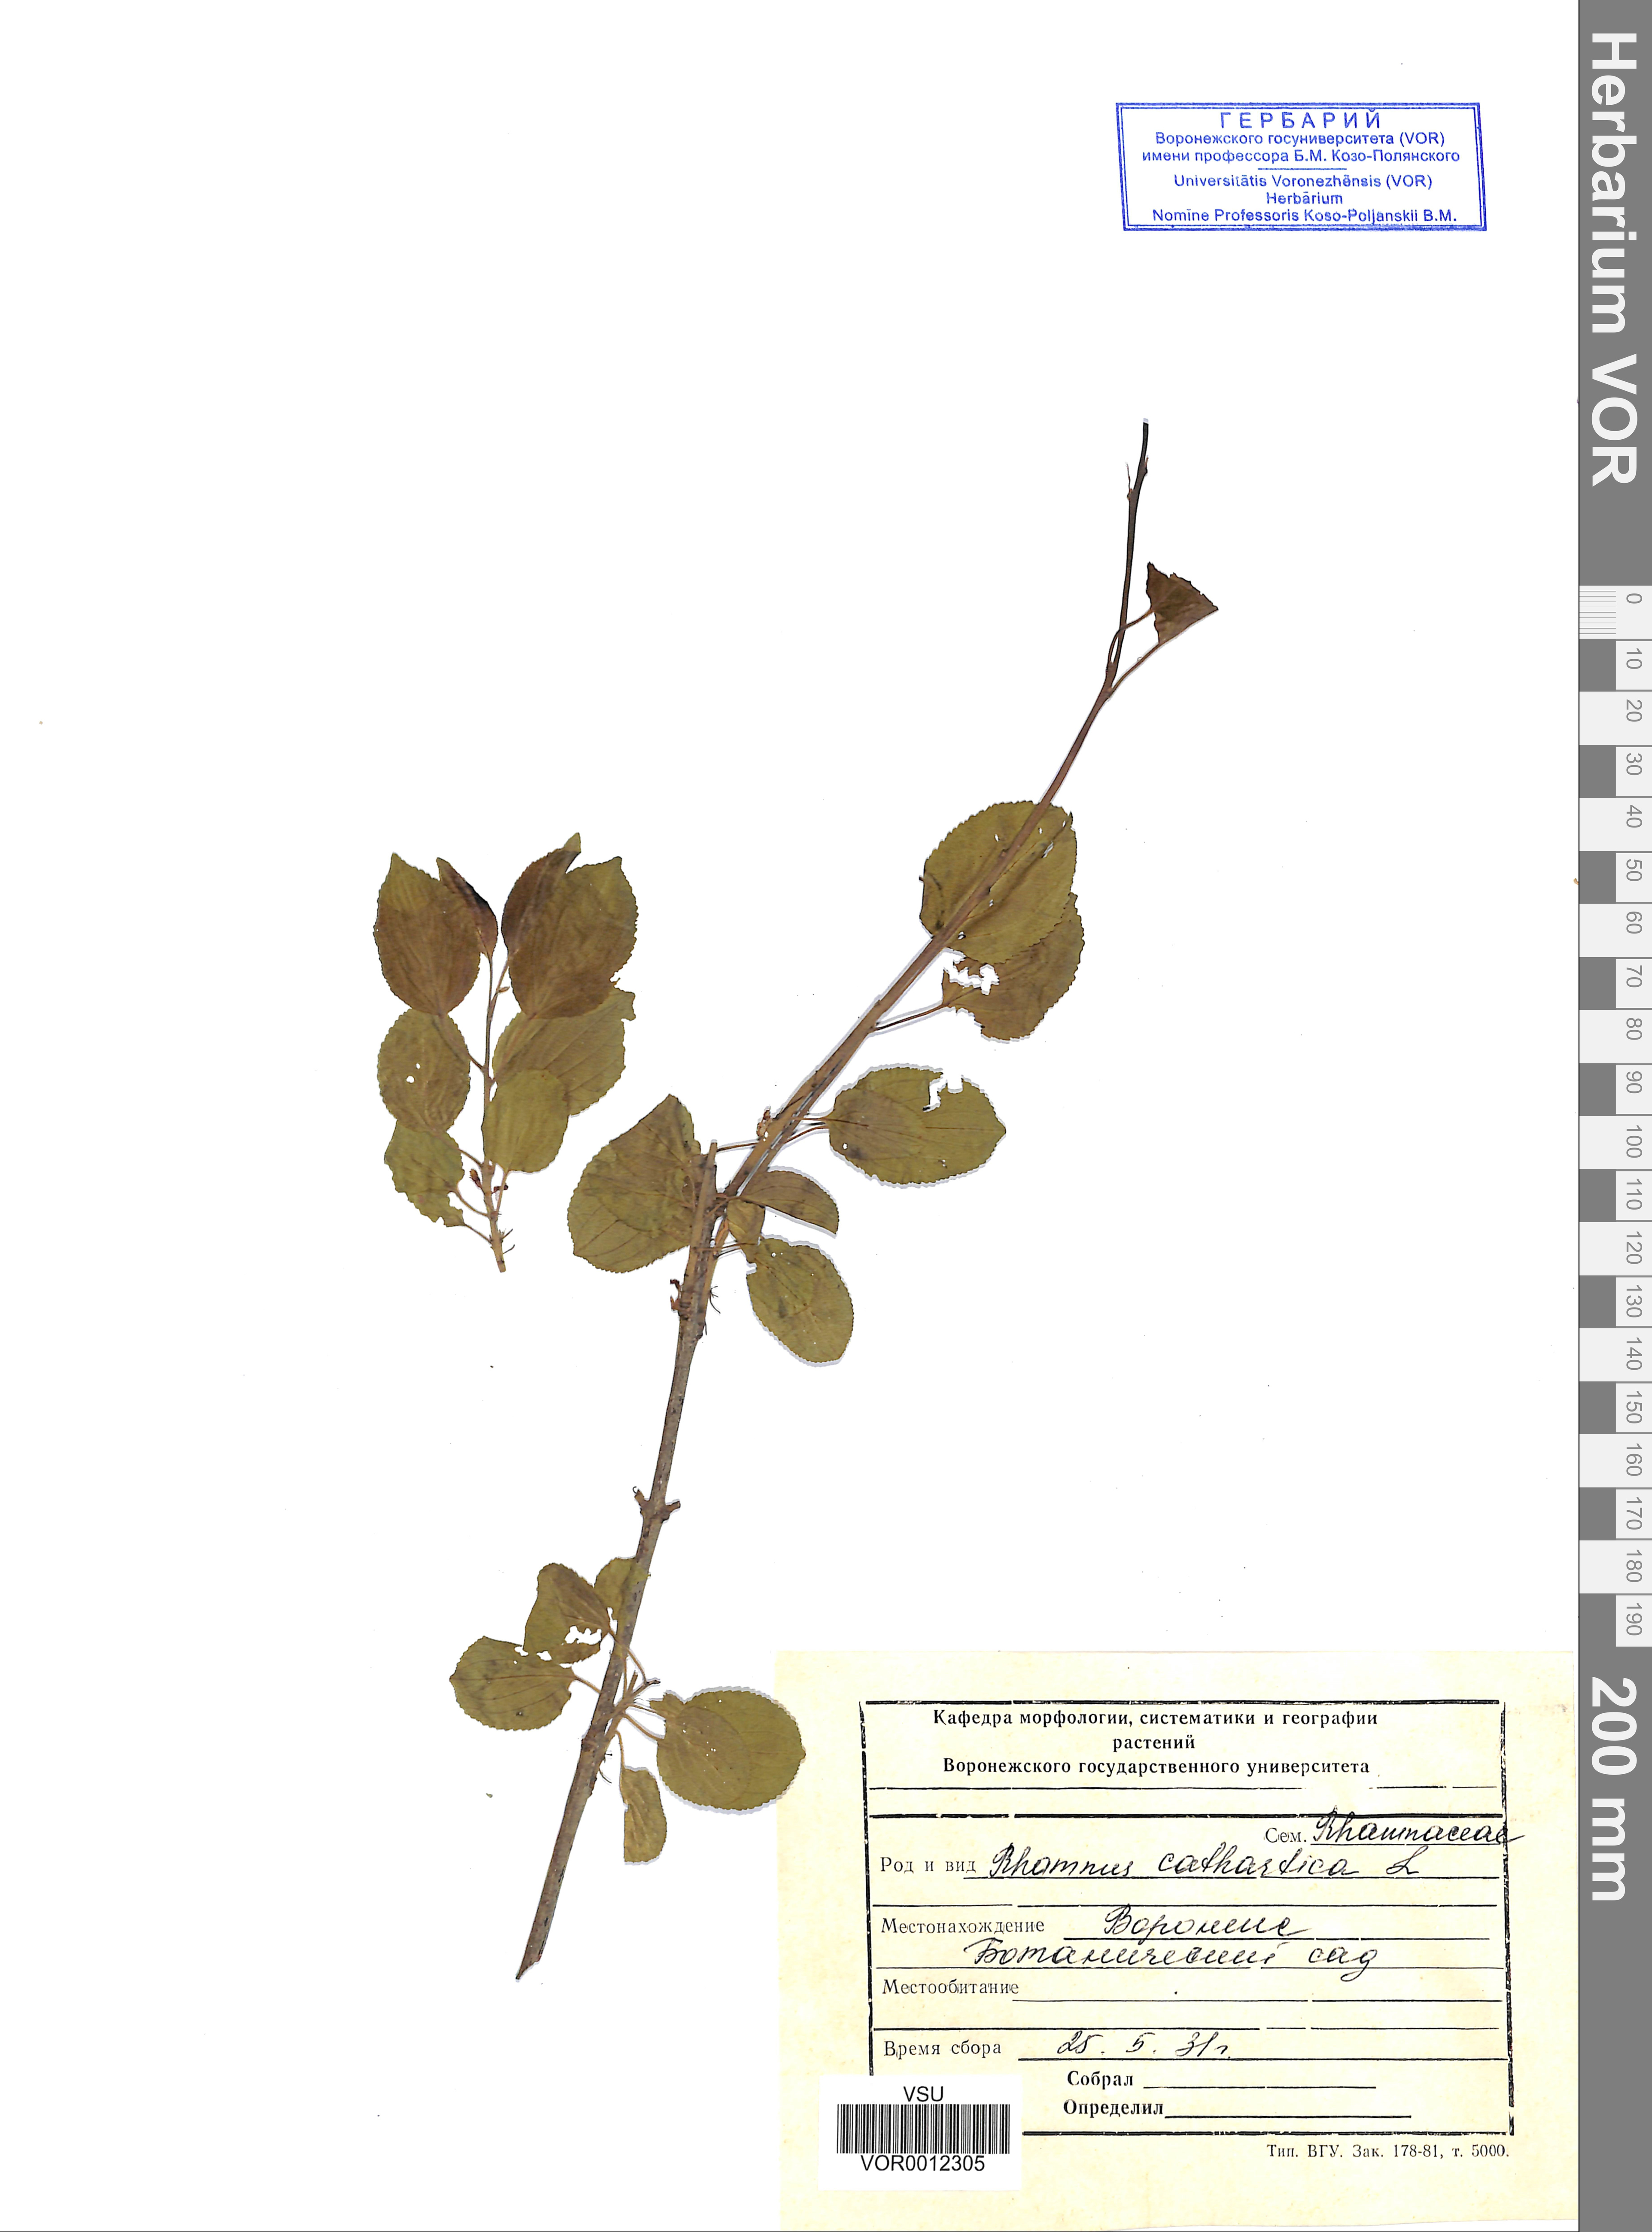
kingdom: Plantae
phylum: Tracheophyta
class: Magnoliopsida
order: Rosales
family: Rhamnaceae
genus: Rhamnus
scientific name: Rhamnus cathartica
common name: Common buckthorn
